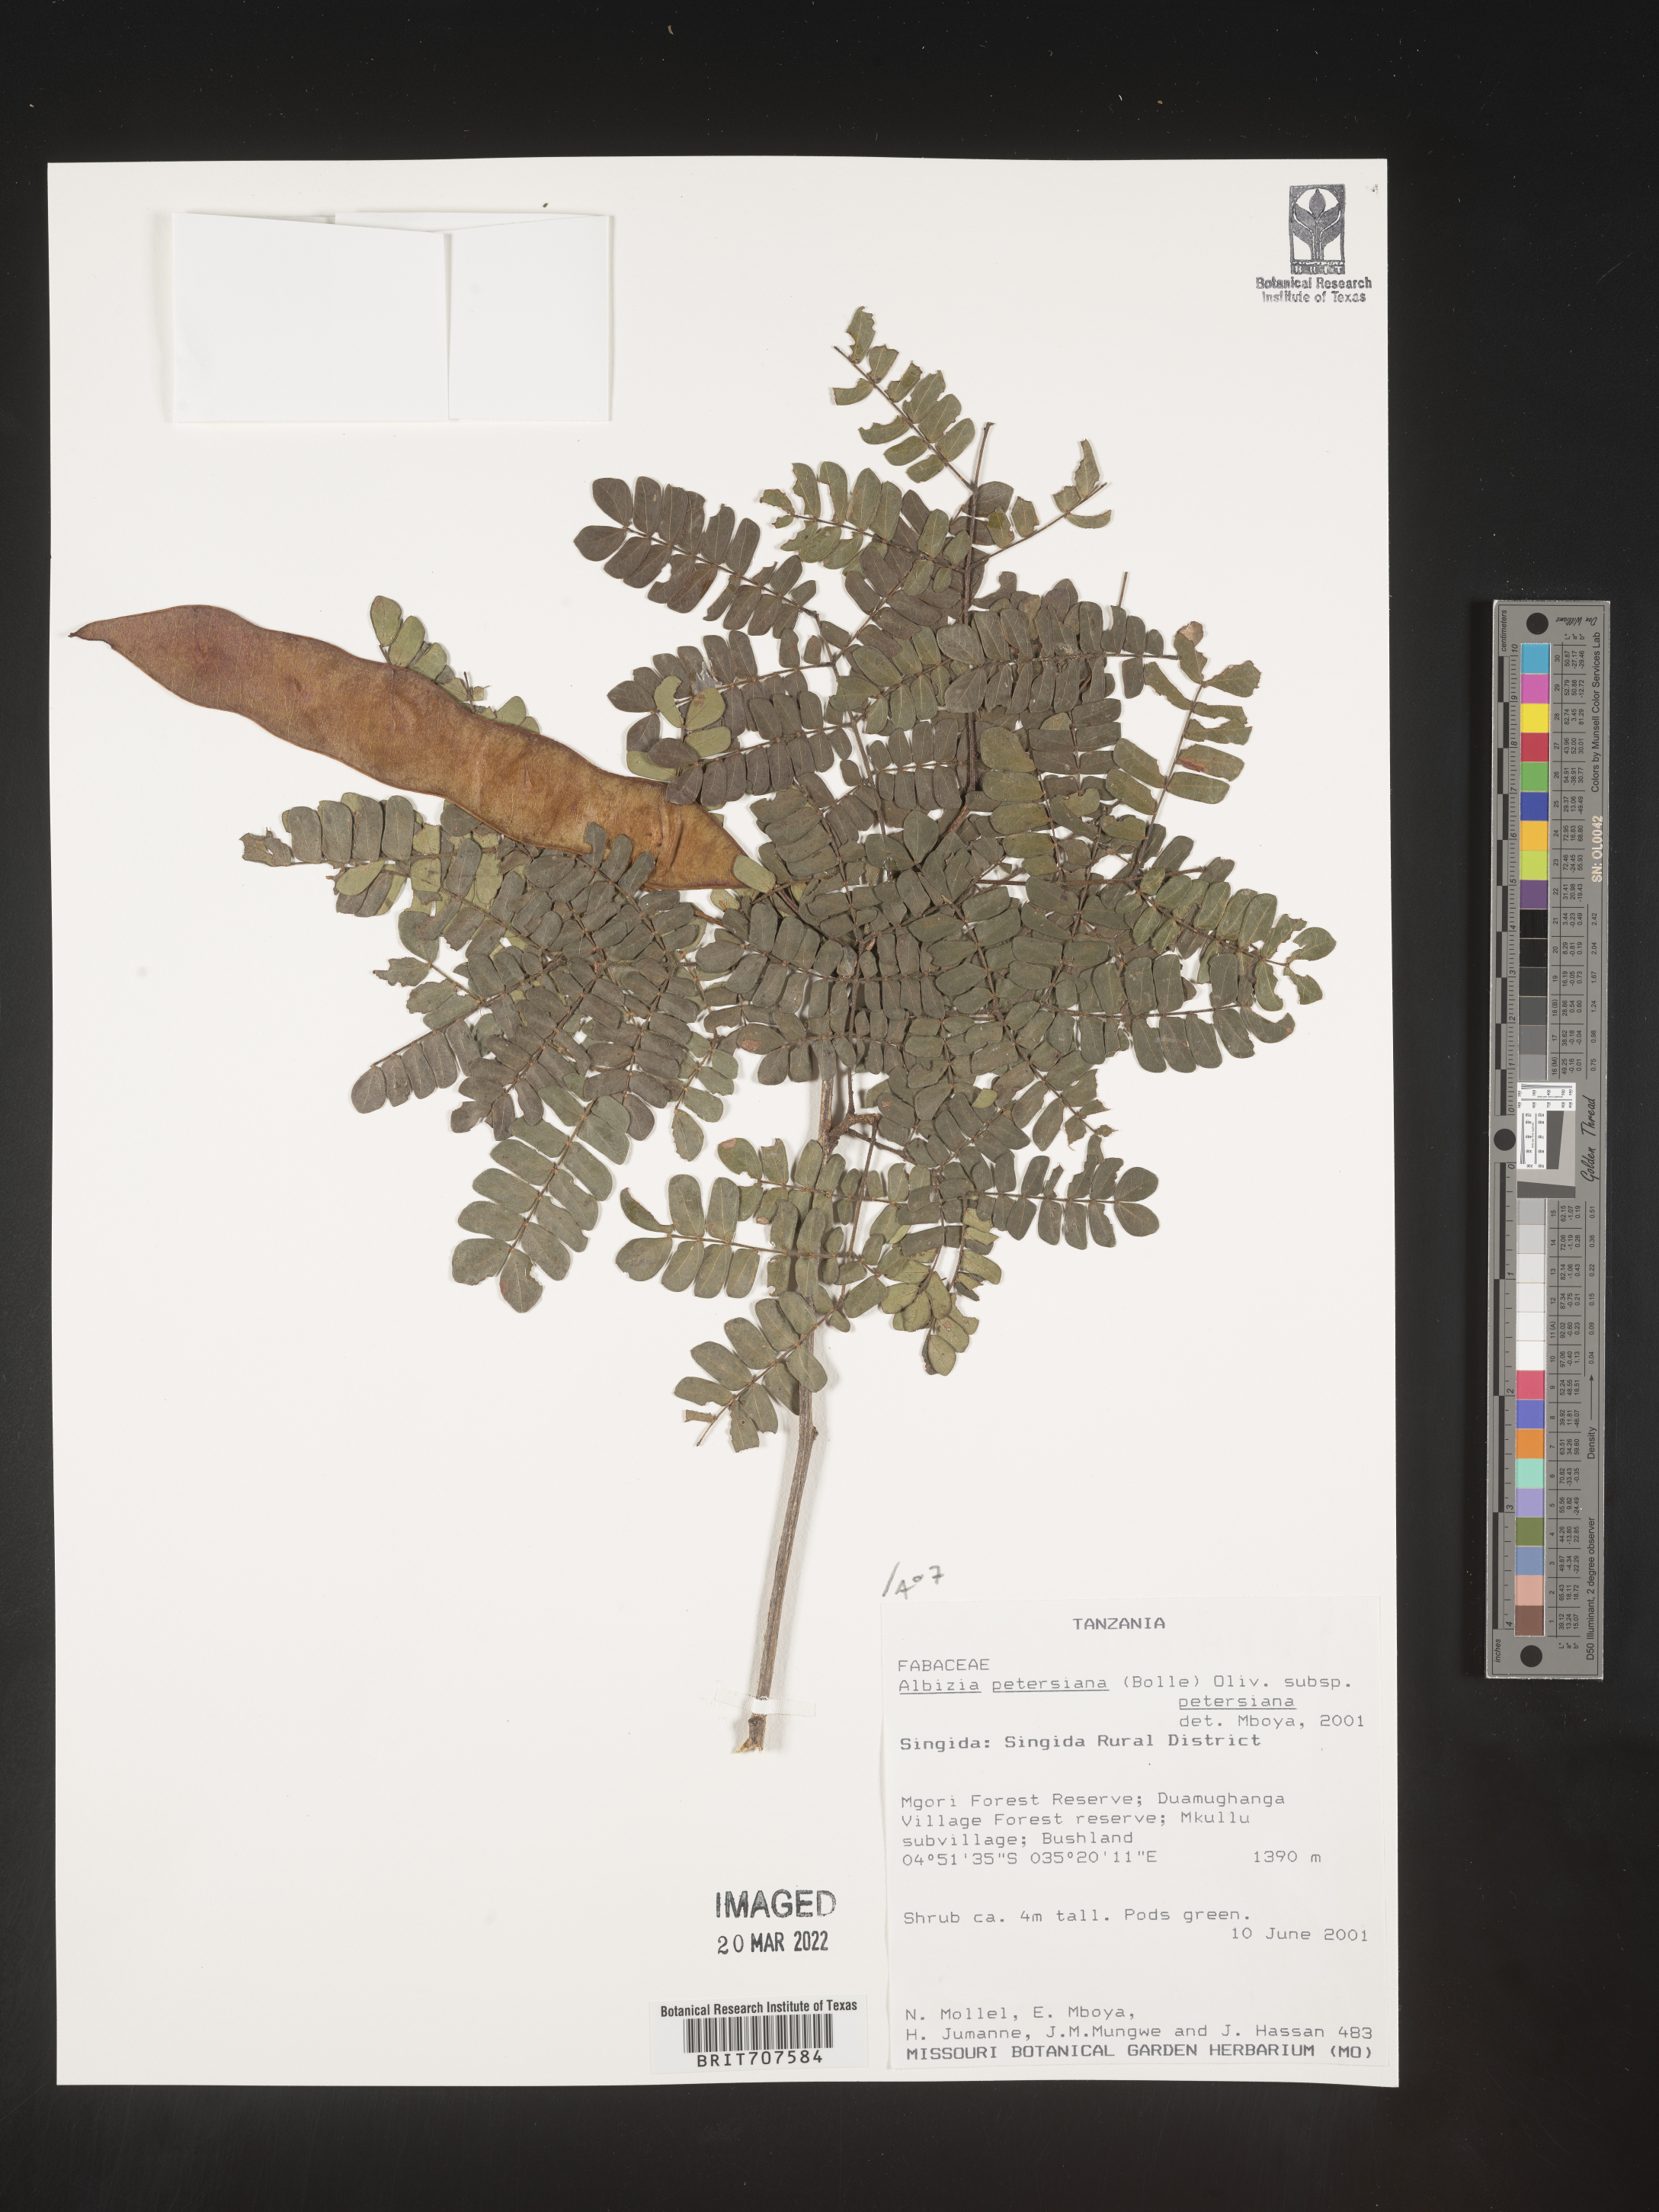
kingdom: Plantae
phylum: Tracheophyta
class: Magnoliopsida
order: Fabales
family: Fabaceae
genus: Albizia
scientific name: Albizia
